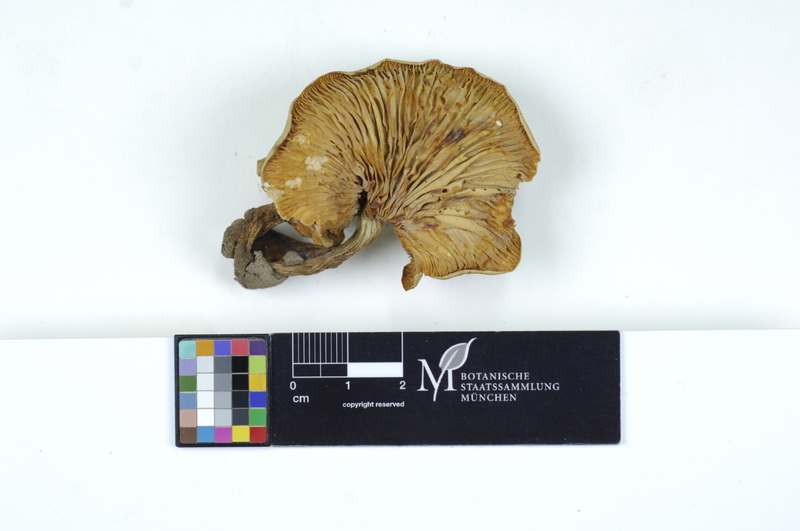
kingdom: Fungi
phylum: Basidiomycota
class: Agaricomycetes
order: Russulales
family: Russulaceae
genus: Lactarius
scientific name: Lactarius pyrogalus
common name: Fiery milkcap
